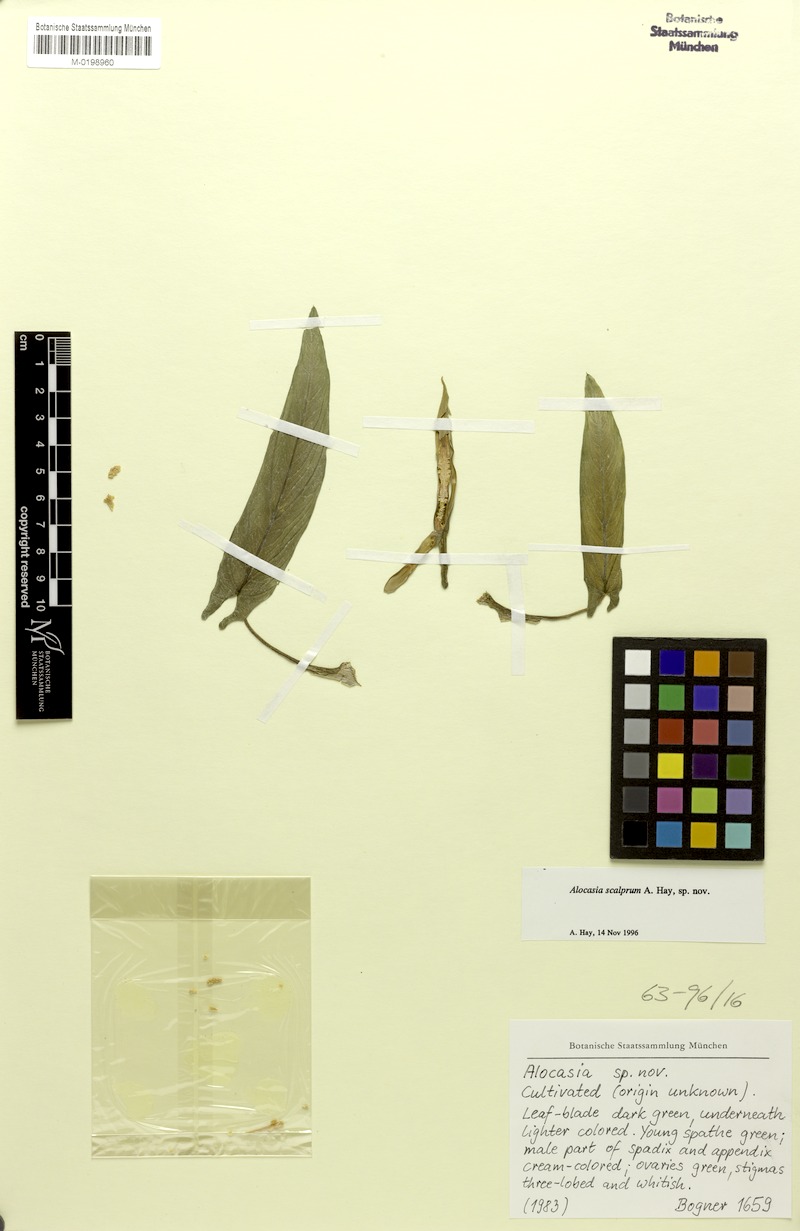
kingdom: Plantae
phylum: Tracheophyta
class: Liliopsida
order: Alismatales
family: Araceae
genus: Alocasia
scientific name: Alocasia scalprum
